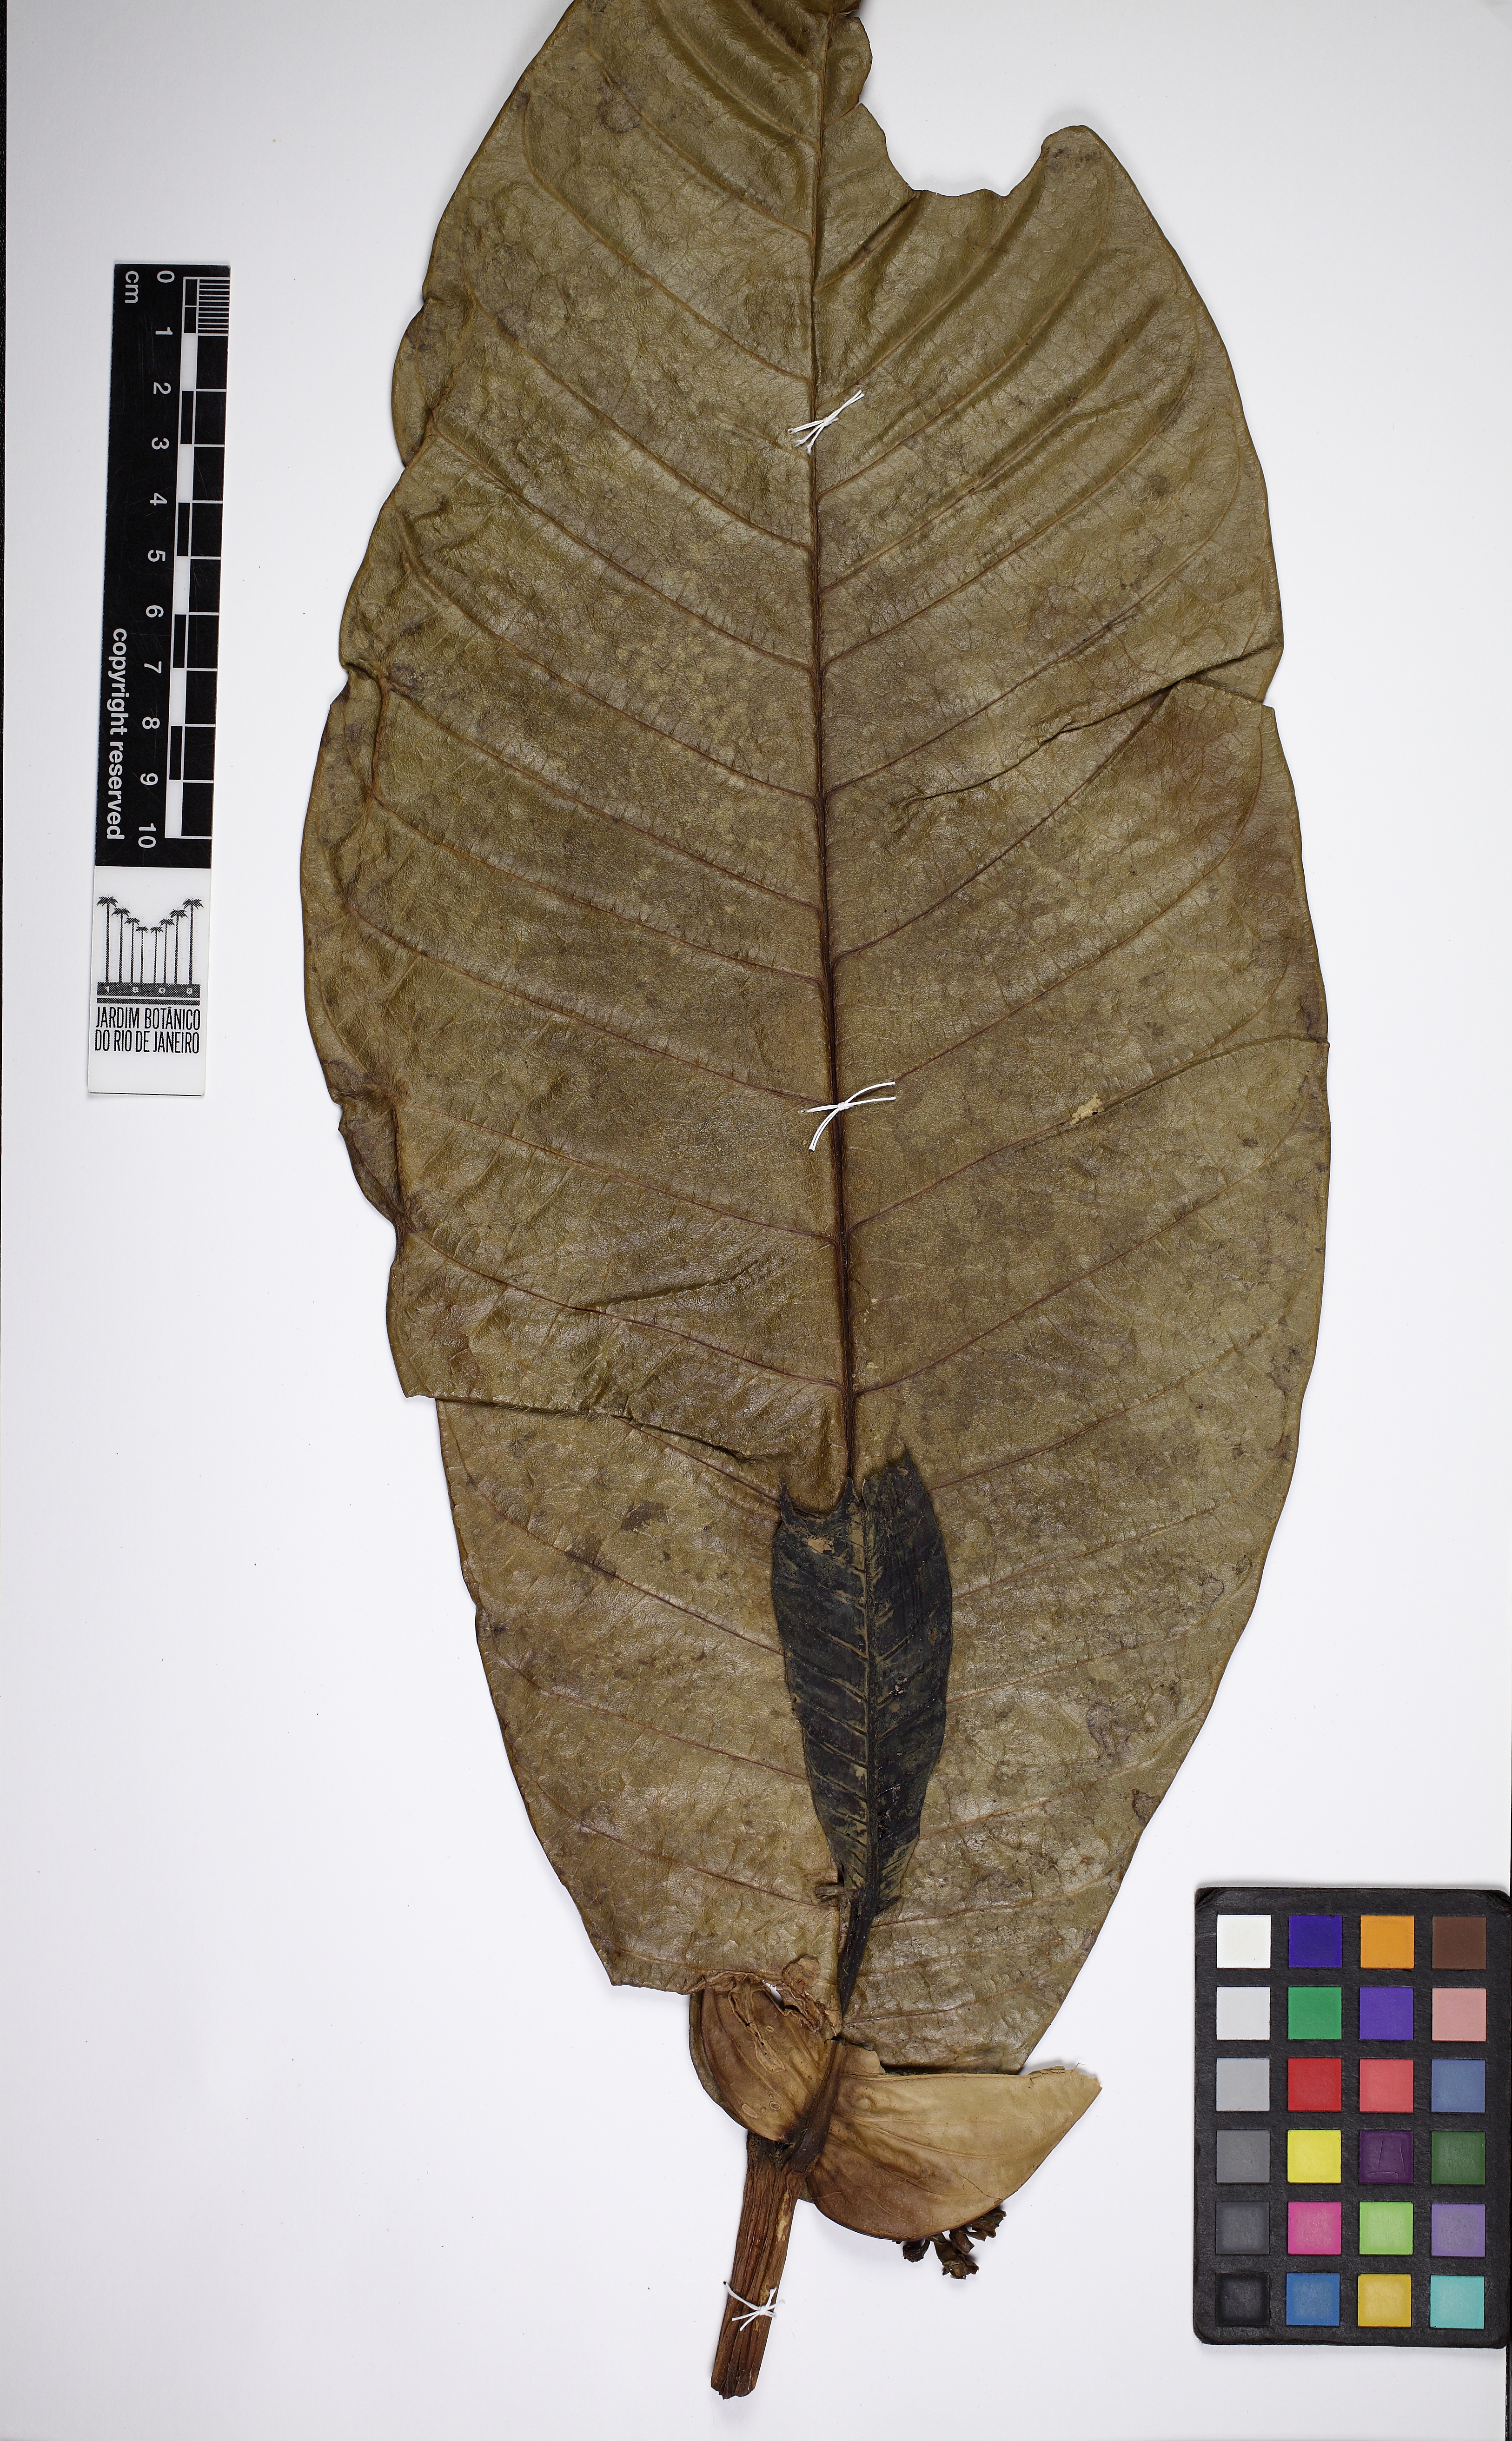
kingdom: Plantae
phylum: Tracheophyta
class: Magnoliopsida
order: Gentianales
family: Apocynaceae
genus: Tabernaemontana
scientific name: Tabernaemontana
